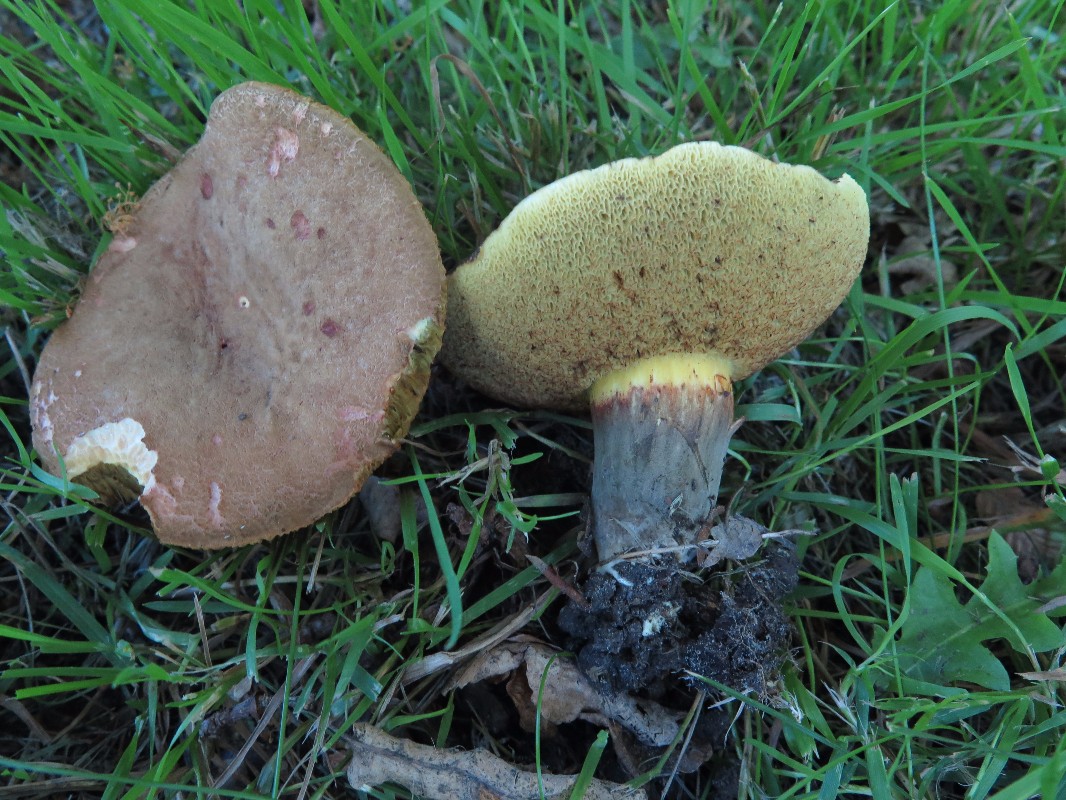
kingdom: Fungi
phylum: Basidiomycota
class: Agaricomycetes
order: Boletales
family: Boletaceae
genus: Xerocomellus
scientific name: Xerocomellus porosporus
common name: hvidsprukken rørhat
